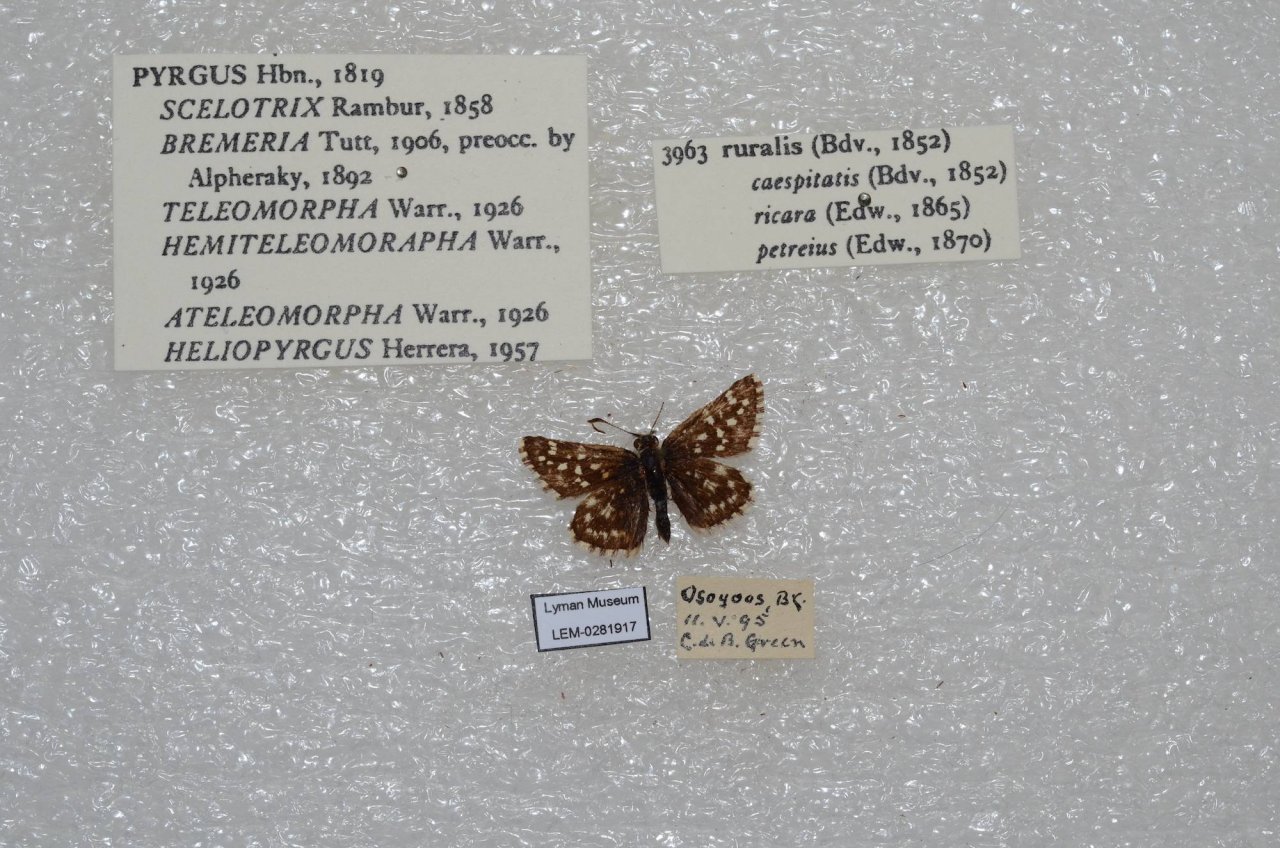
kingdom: Animalia
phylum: Arthropoda
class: Insecta
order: Lepidoptera
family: Hesperiidae
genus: Pyrgus
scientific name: Pyrgus ruralis
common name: Two-banded Checkered-Skipper
